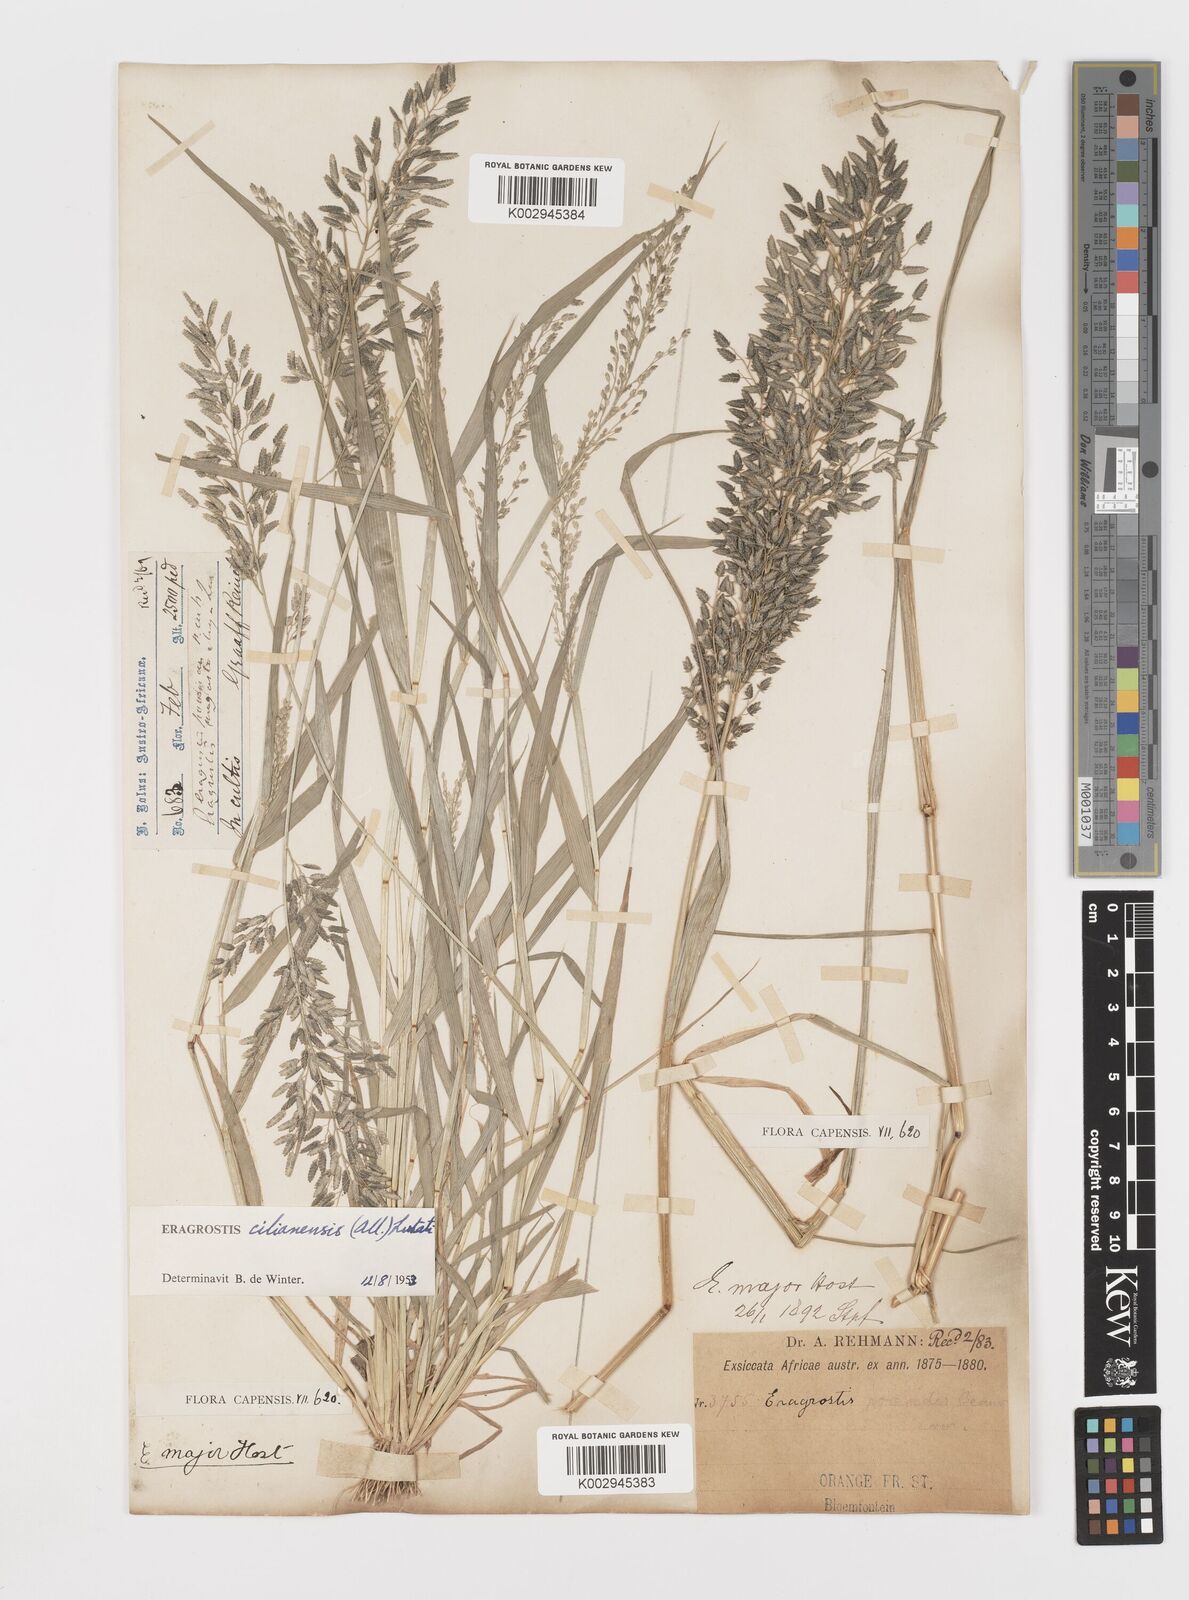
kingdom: Plantae
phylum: Tracheophyta
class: Liliopsida
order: Poales
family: Poaceae
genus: Eragrostis
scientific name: Eragrostis cilianensis
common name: Stinkgrass
